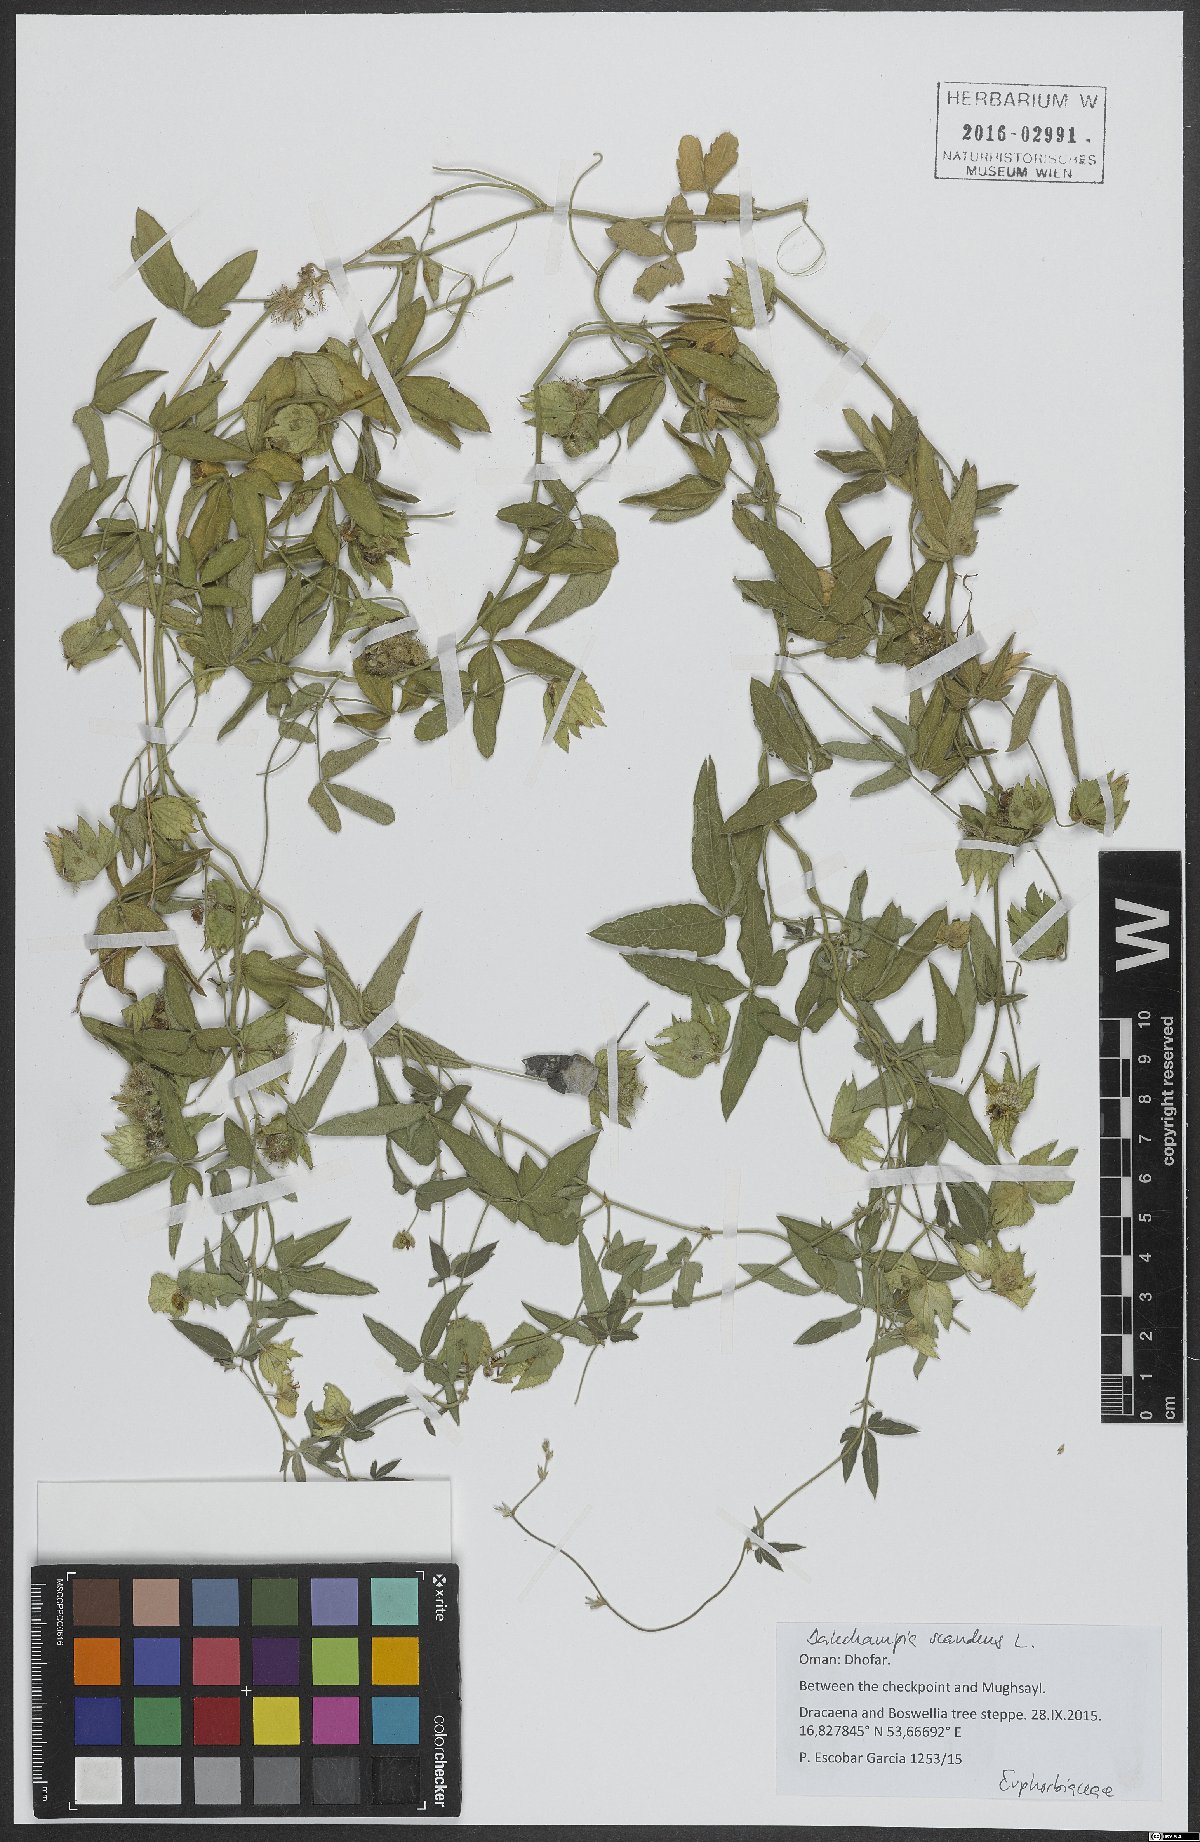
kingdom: Plantae
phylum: Tracheophyta
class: Magnoliopsida
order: Malpighiales
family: Euphorbiaceae
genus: Dalechampia
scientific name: Dalechampia scandens
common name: Spurgecreeper
